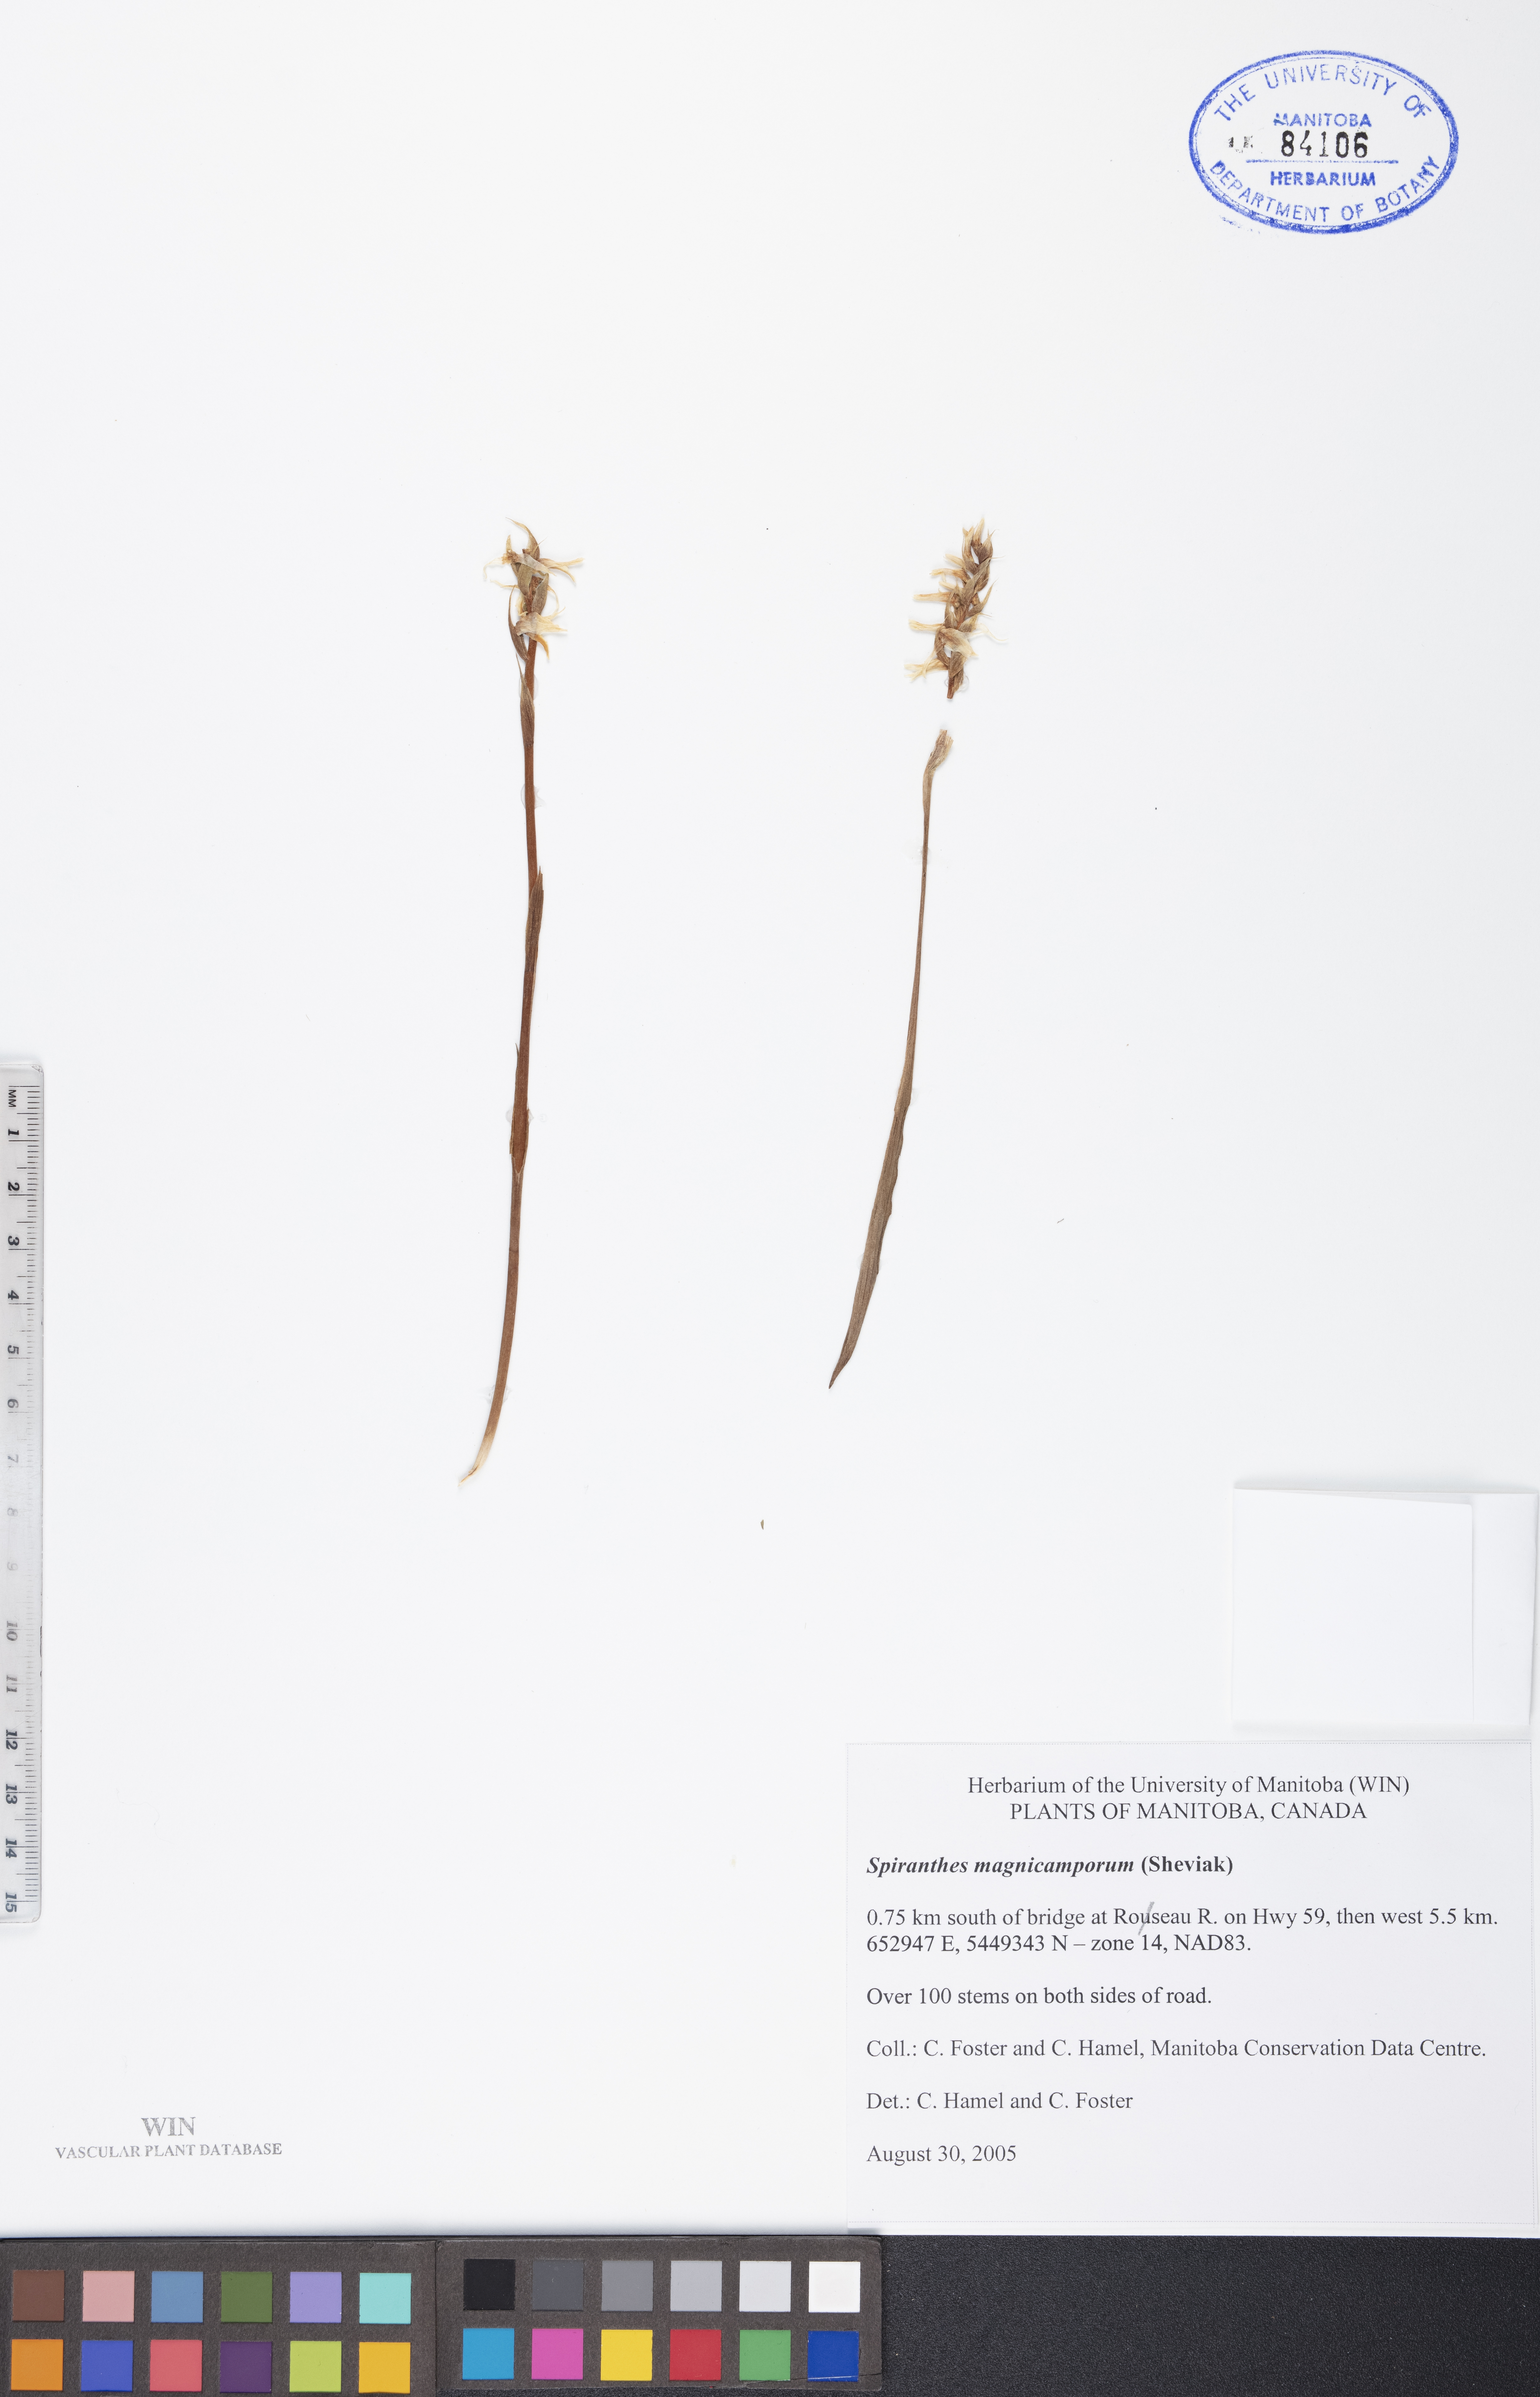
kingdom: Plantae
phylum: Tracheophyta
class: Liliopsida
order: Asparagales
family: Orchidaceae
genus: Spiranthes
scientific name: Spiranthes magnicamporum
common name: Great plains ladies'-tresses
